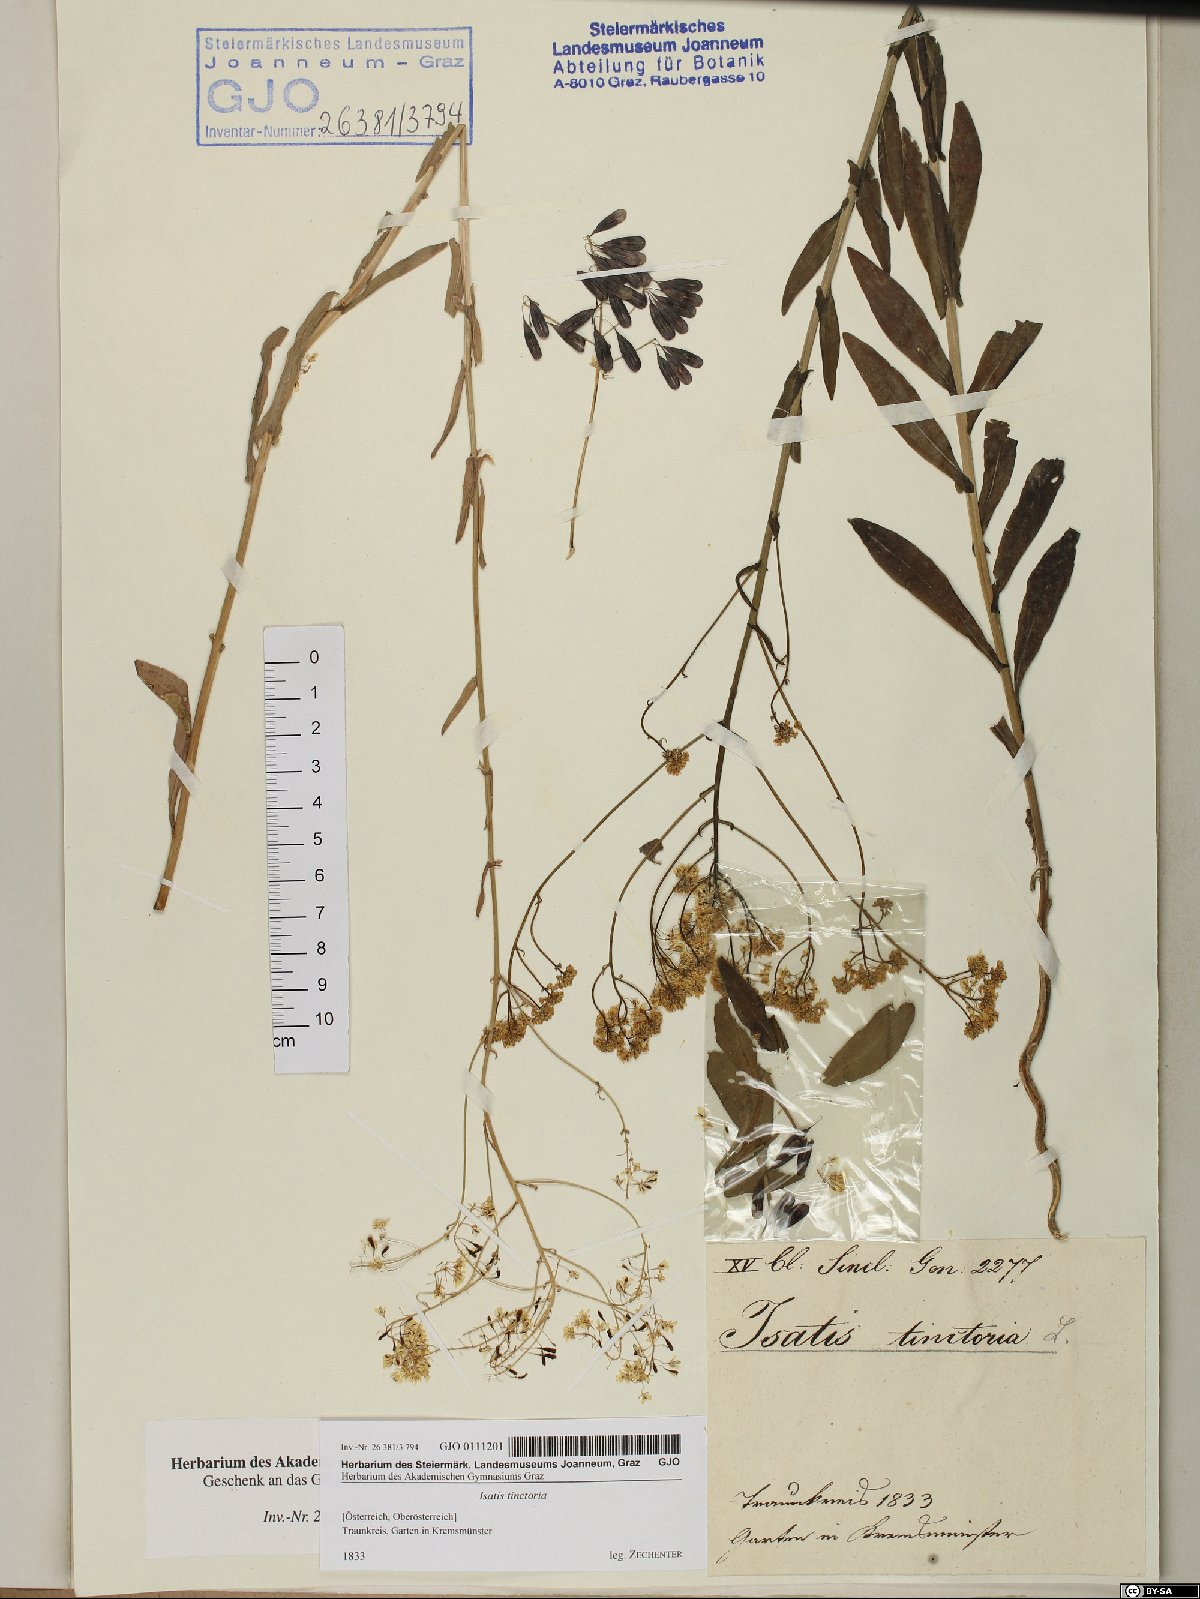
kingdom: Plantae
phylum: Tracheophyta
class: Magnoliopsida
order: Brassicales
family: Brassicaceae
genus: Isatis
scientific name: Isatis tinctoria
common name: Woad
